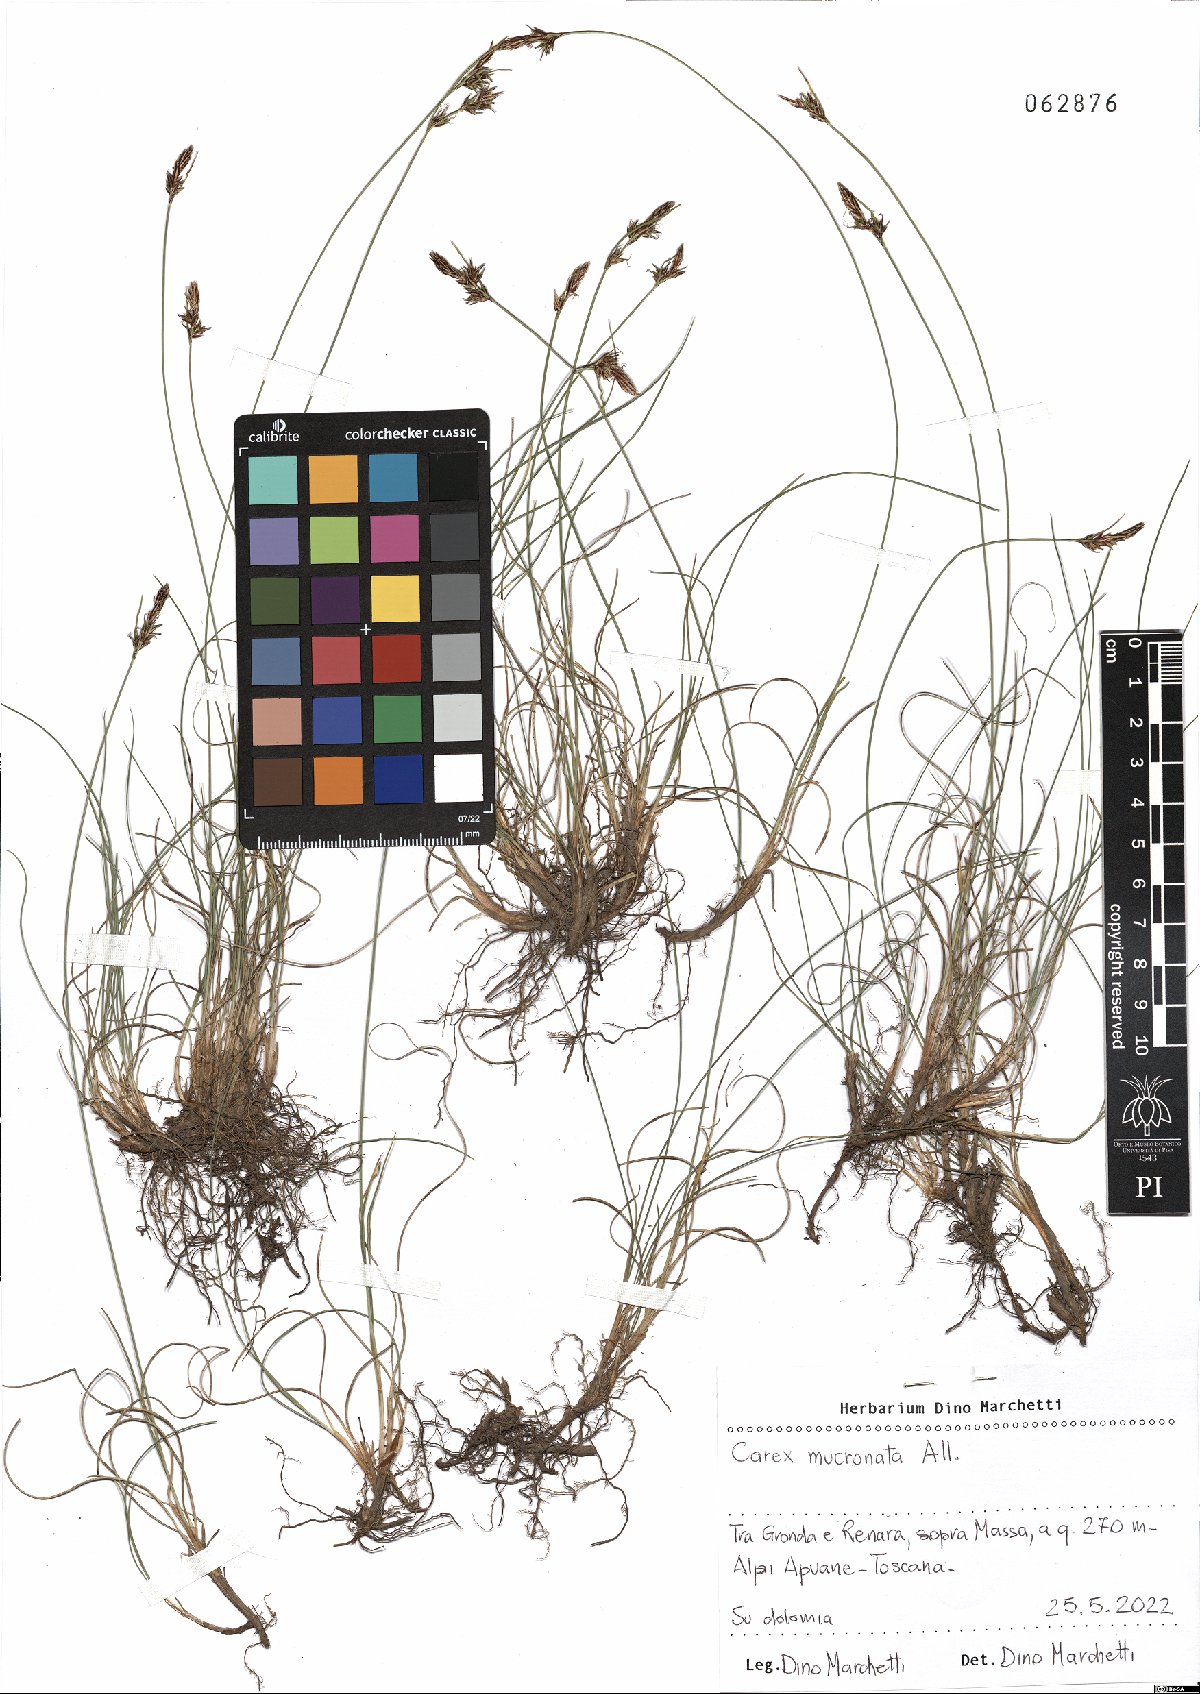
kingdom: Plantae
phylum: Tracheophyta
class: Liliopsida
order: Poales
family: Cyperaceae
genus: Carex
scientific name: Carex mucronata
